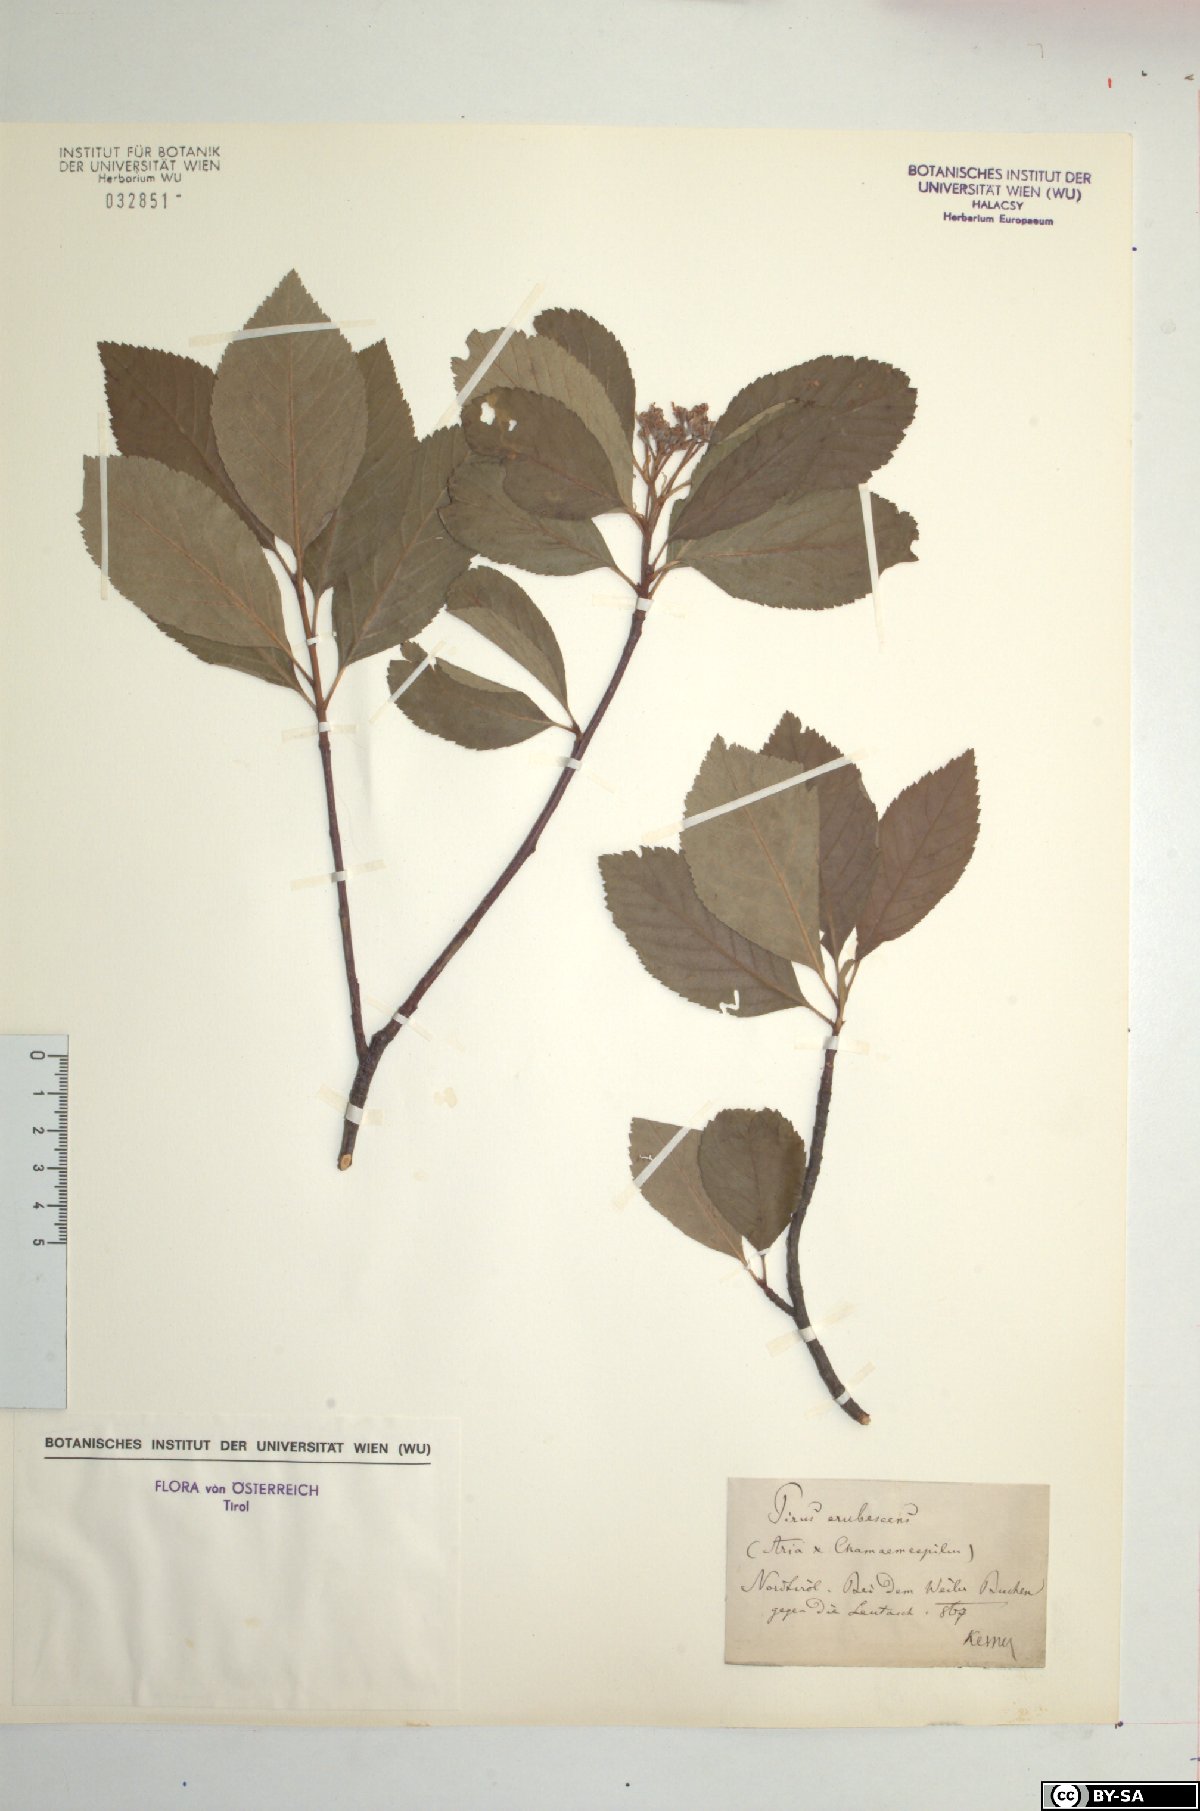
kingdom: Plantae
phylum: Tracheophyta
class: Magnoliopsida
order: Rosales
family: Rosaceae
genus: Majovskya
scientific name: Majovskya sudetica
